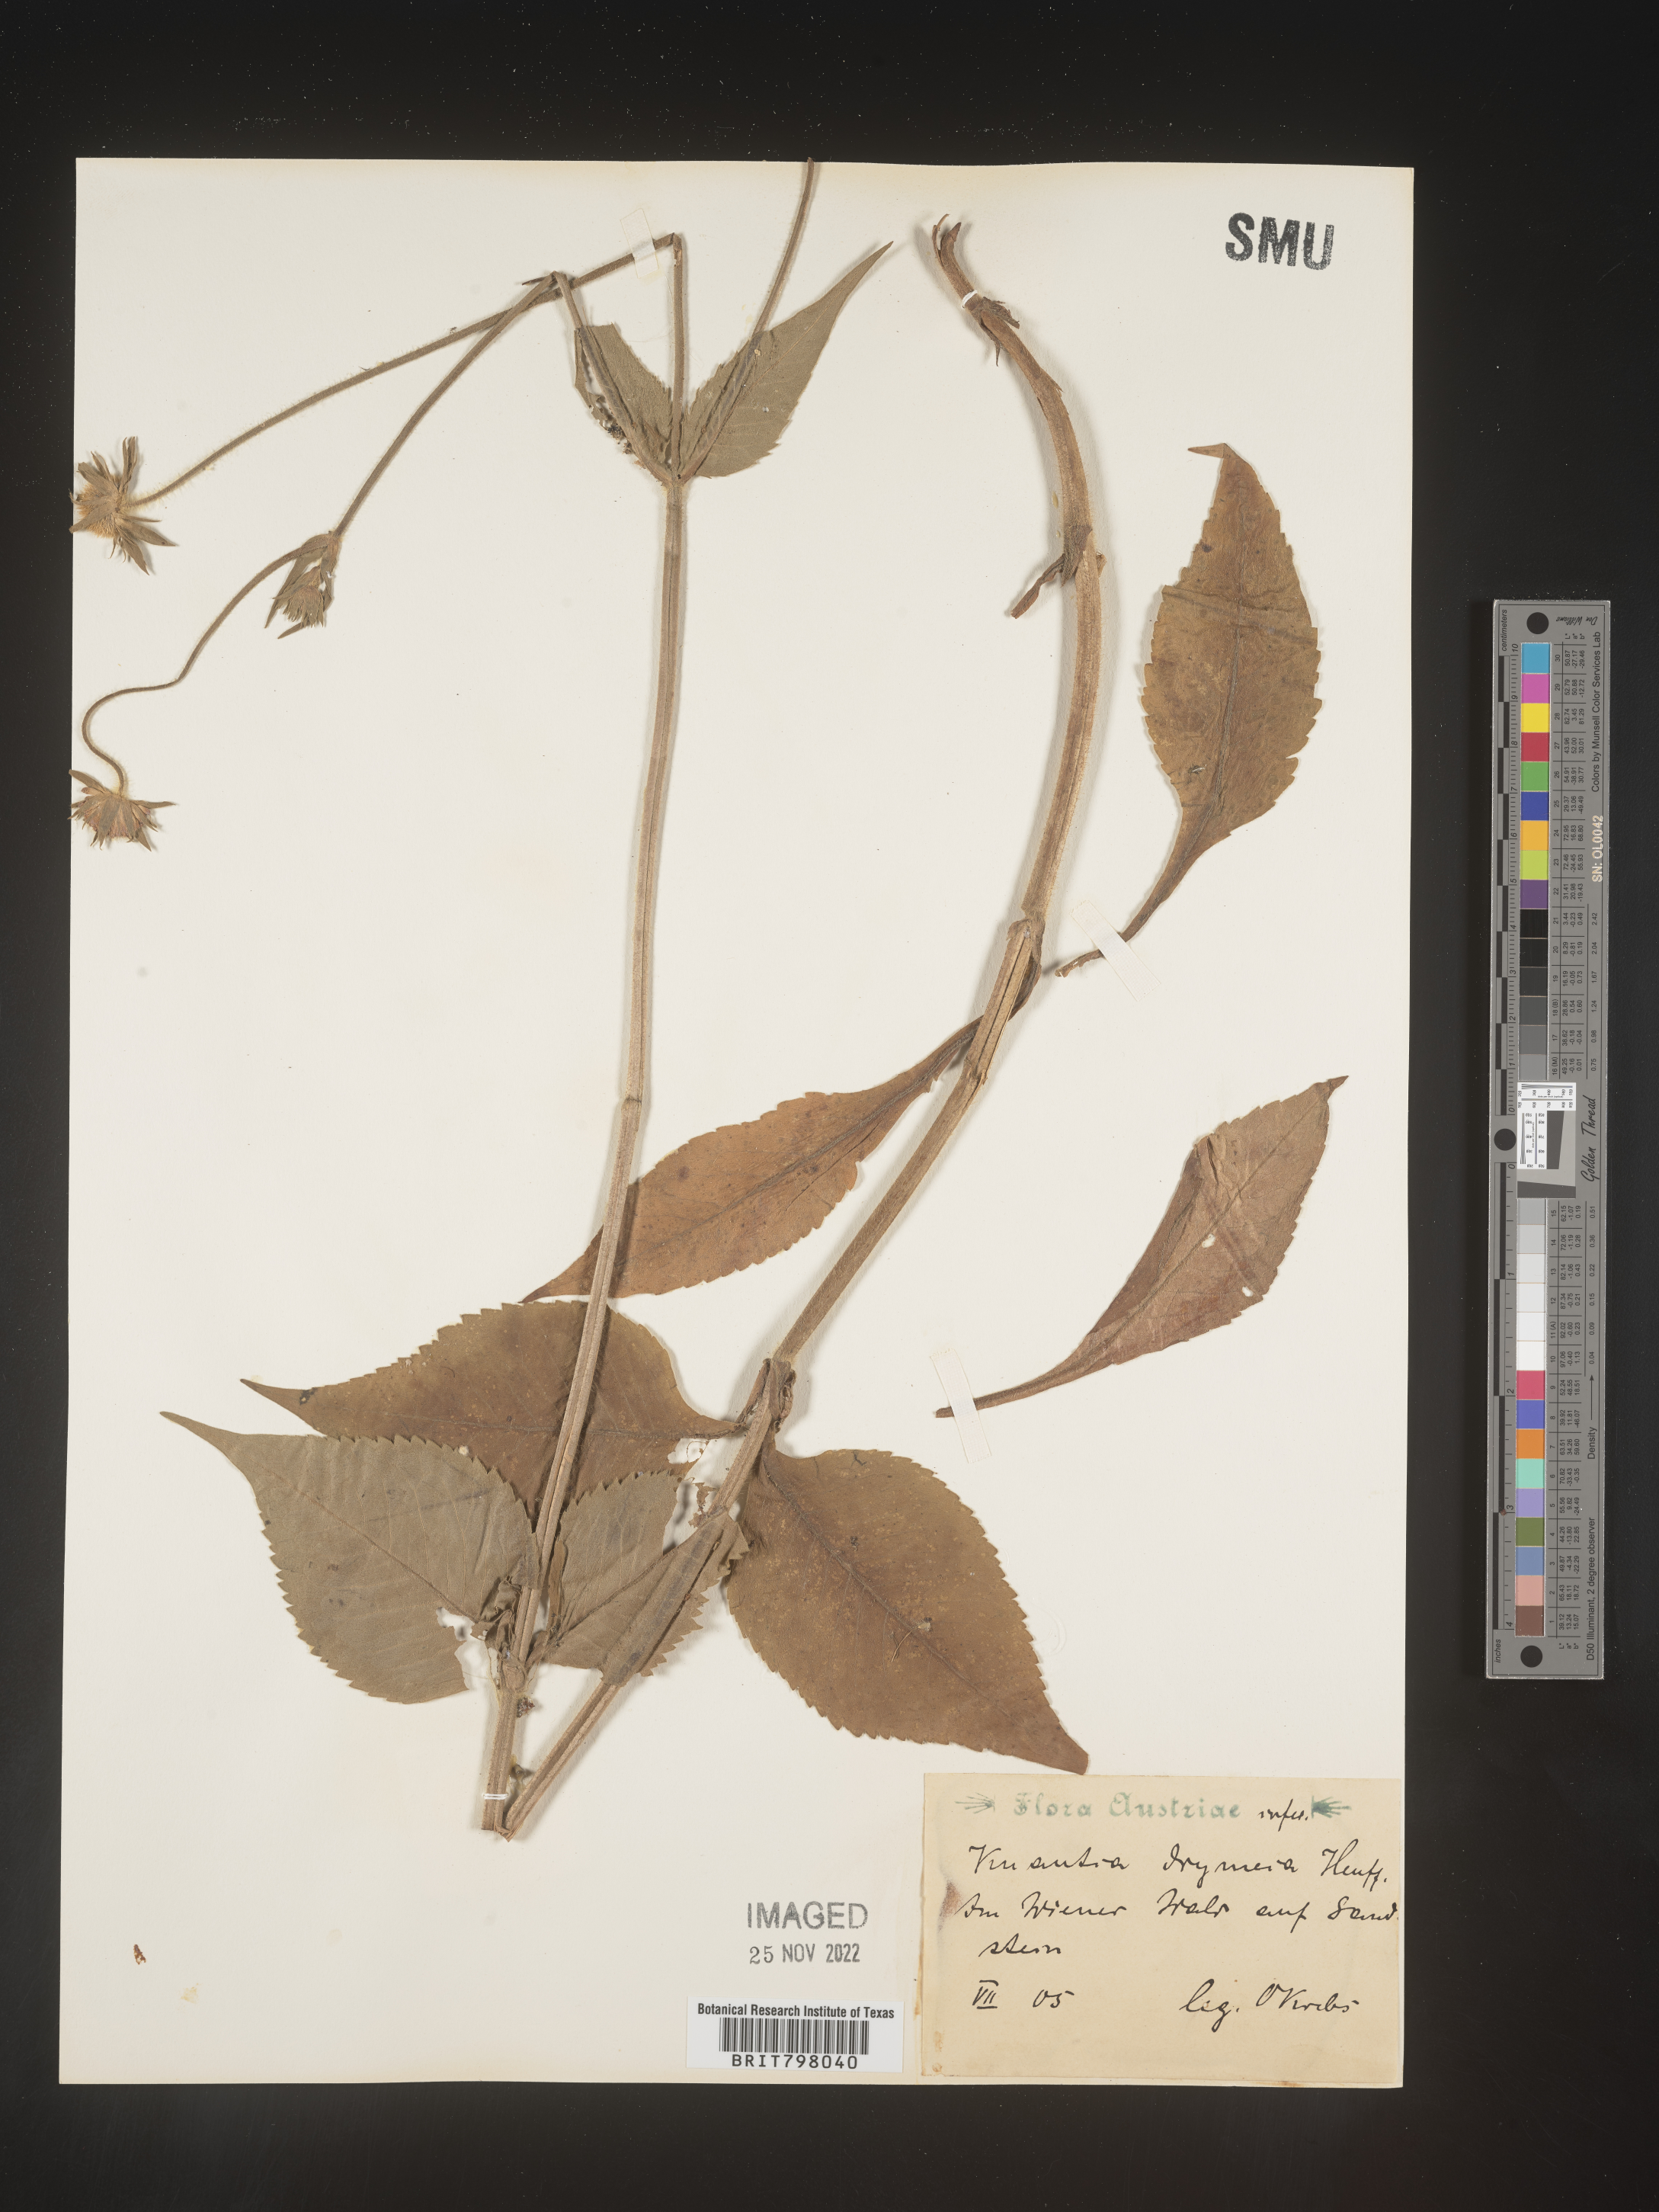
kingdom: Plantae
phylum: Tracheophyta
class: Magnoliopsida
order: Dipsacales
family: Caprifoliaceae
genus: Knautia
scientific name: Knautia
